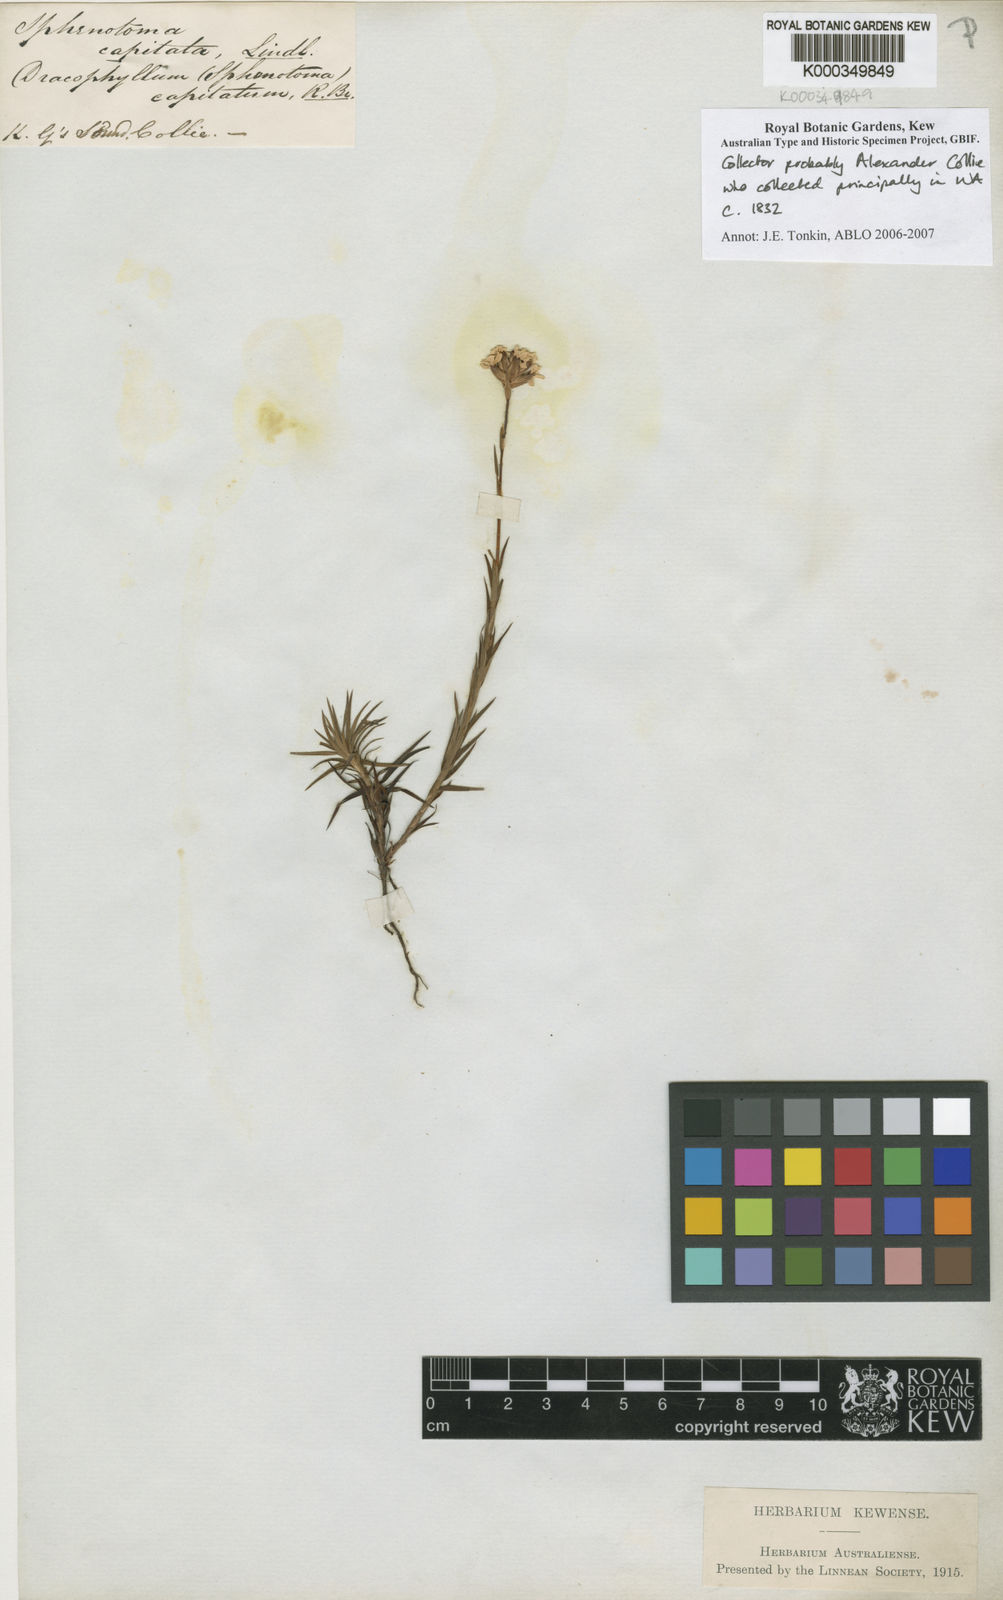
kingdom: Plantae
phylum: Tracheophyta
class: Magnoliopsida
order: Ericales
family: Ericaceae
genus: Sphenotoma
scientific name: Sphenotoma capitatum
